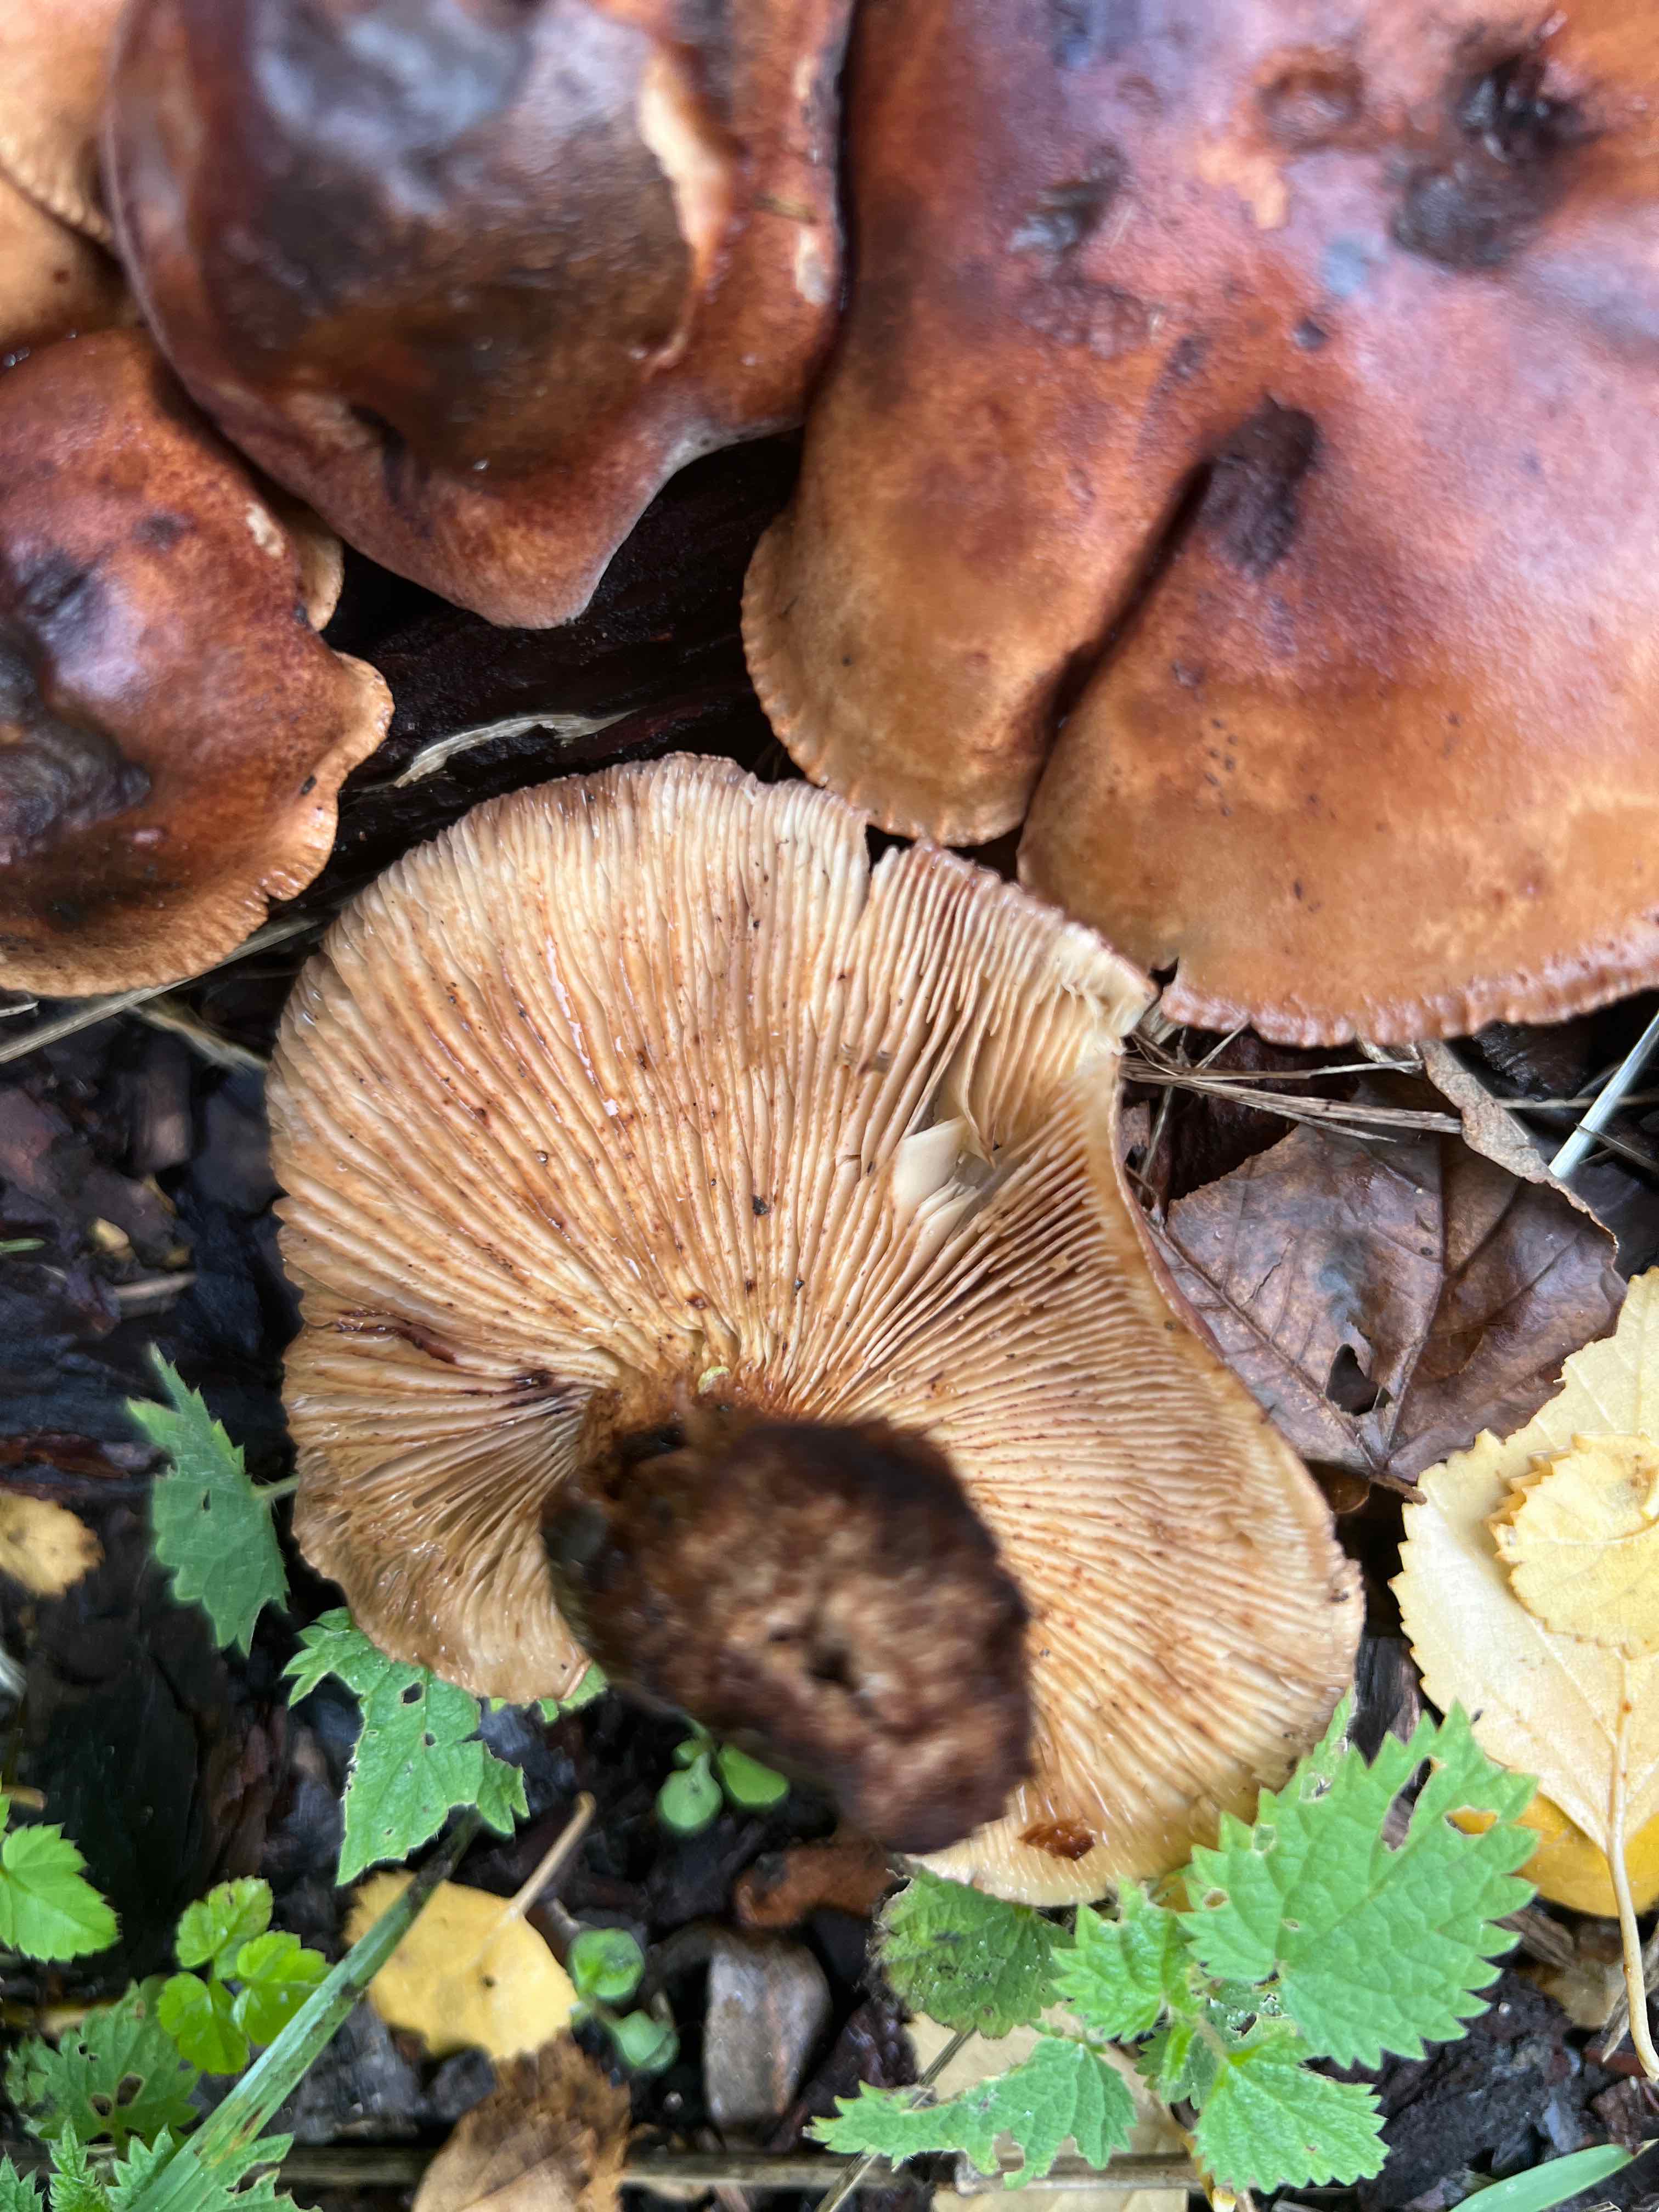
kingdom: Fungi
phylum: Basidiomycota
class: Agaricomycetes
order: Agaricales
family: Tricholomataceae
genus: Tricholoma
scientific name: Tricholoma ustale
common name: sveden ridderhat
